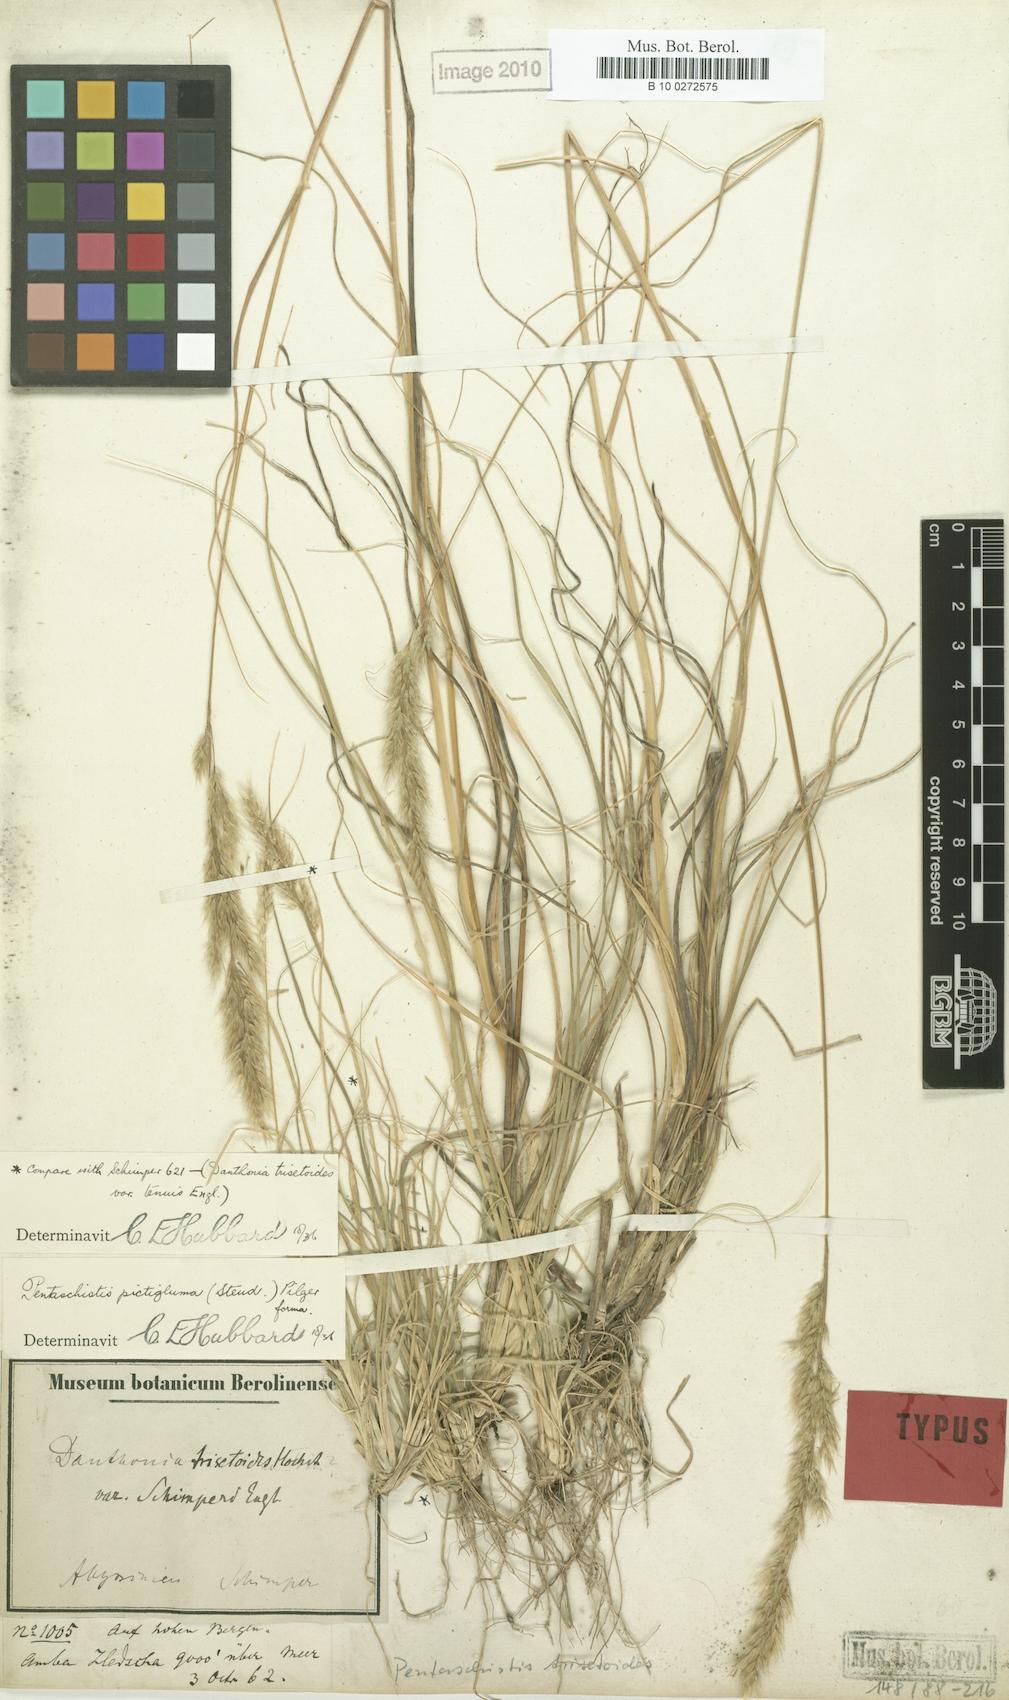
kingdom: Plantae
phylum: Tracheophyta
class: Liliopsida
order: Poales
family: Poaceae
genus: Pentameris
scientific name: Pentameris pictigluma
